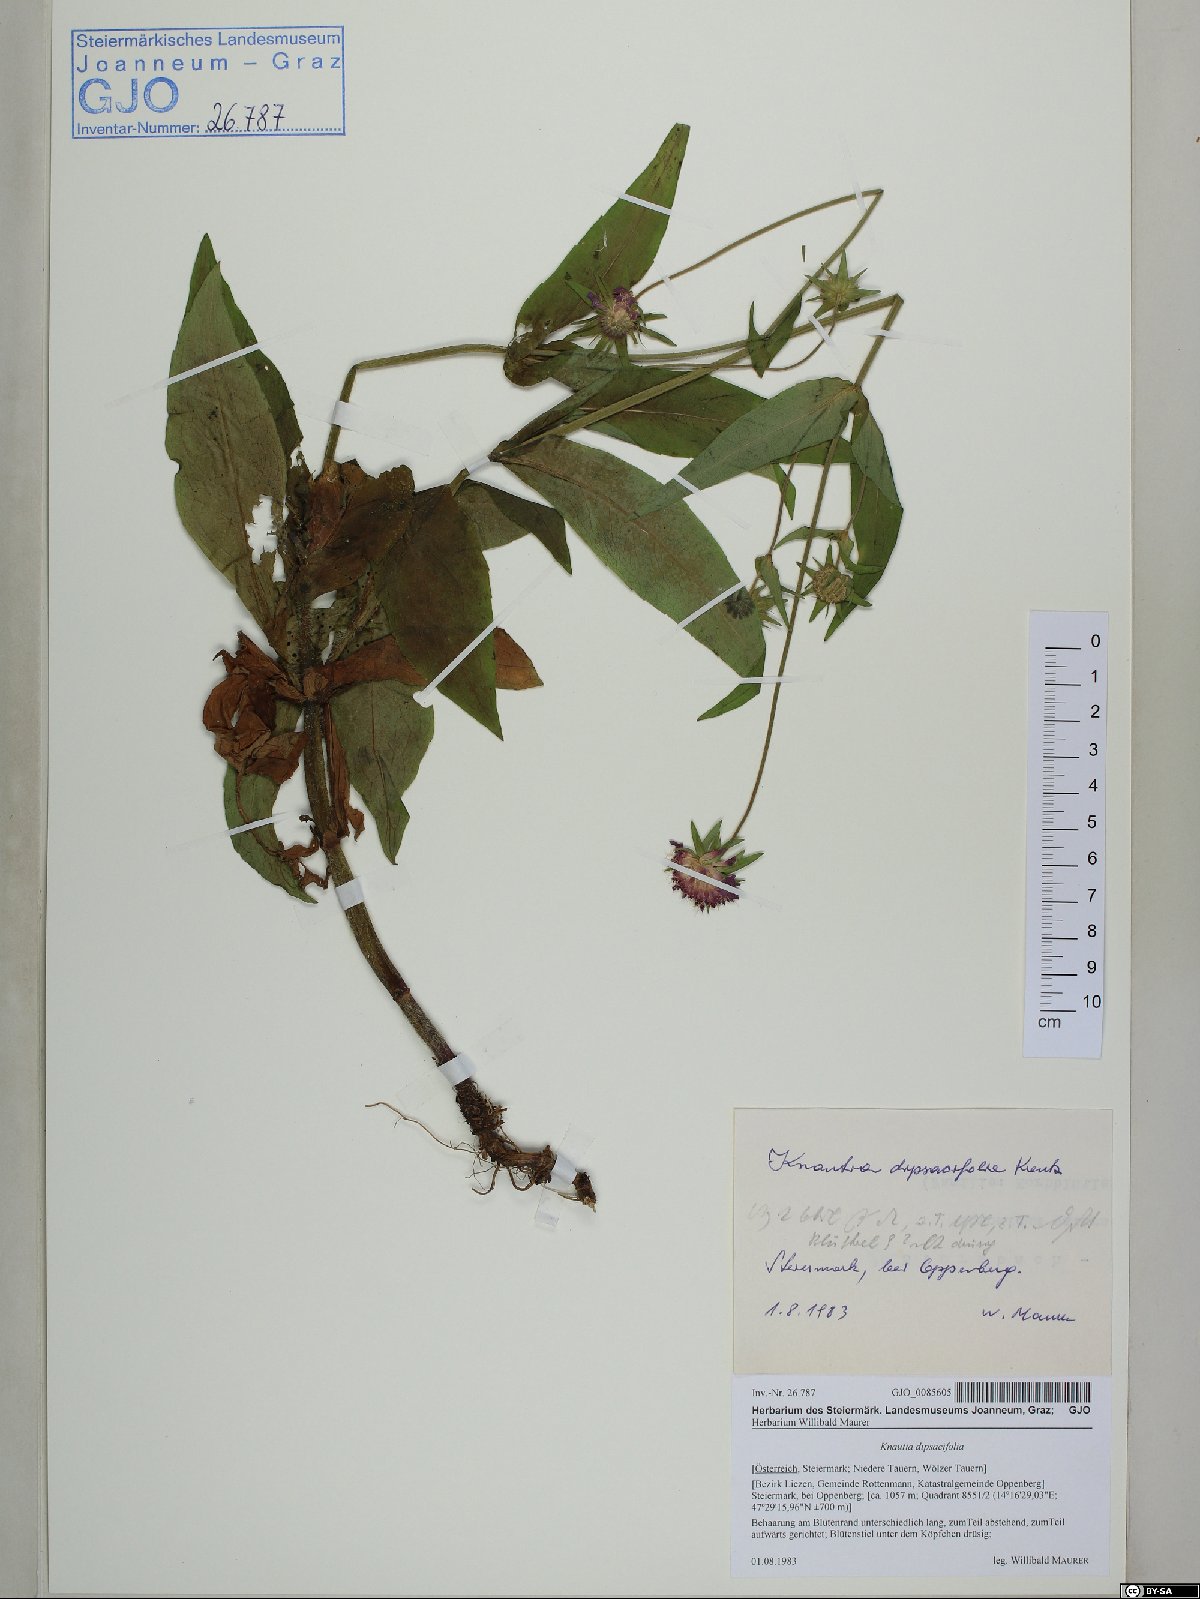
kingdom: Plantae
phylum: Tracheophyta
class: Magnoliopsida
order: Dipsacales
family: Caprifoliaceae
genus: Knautia
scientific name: Knautia dipsacifolia
